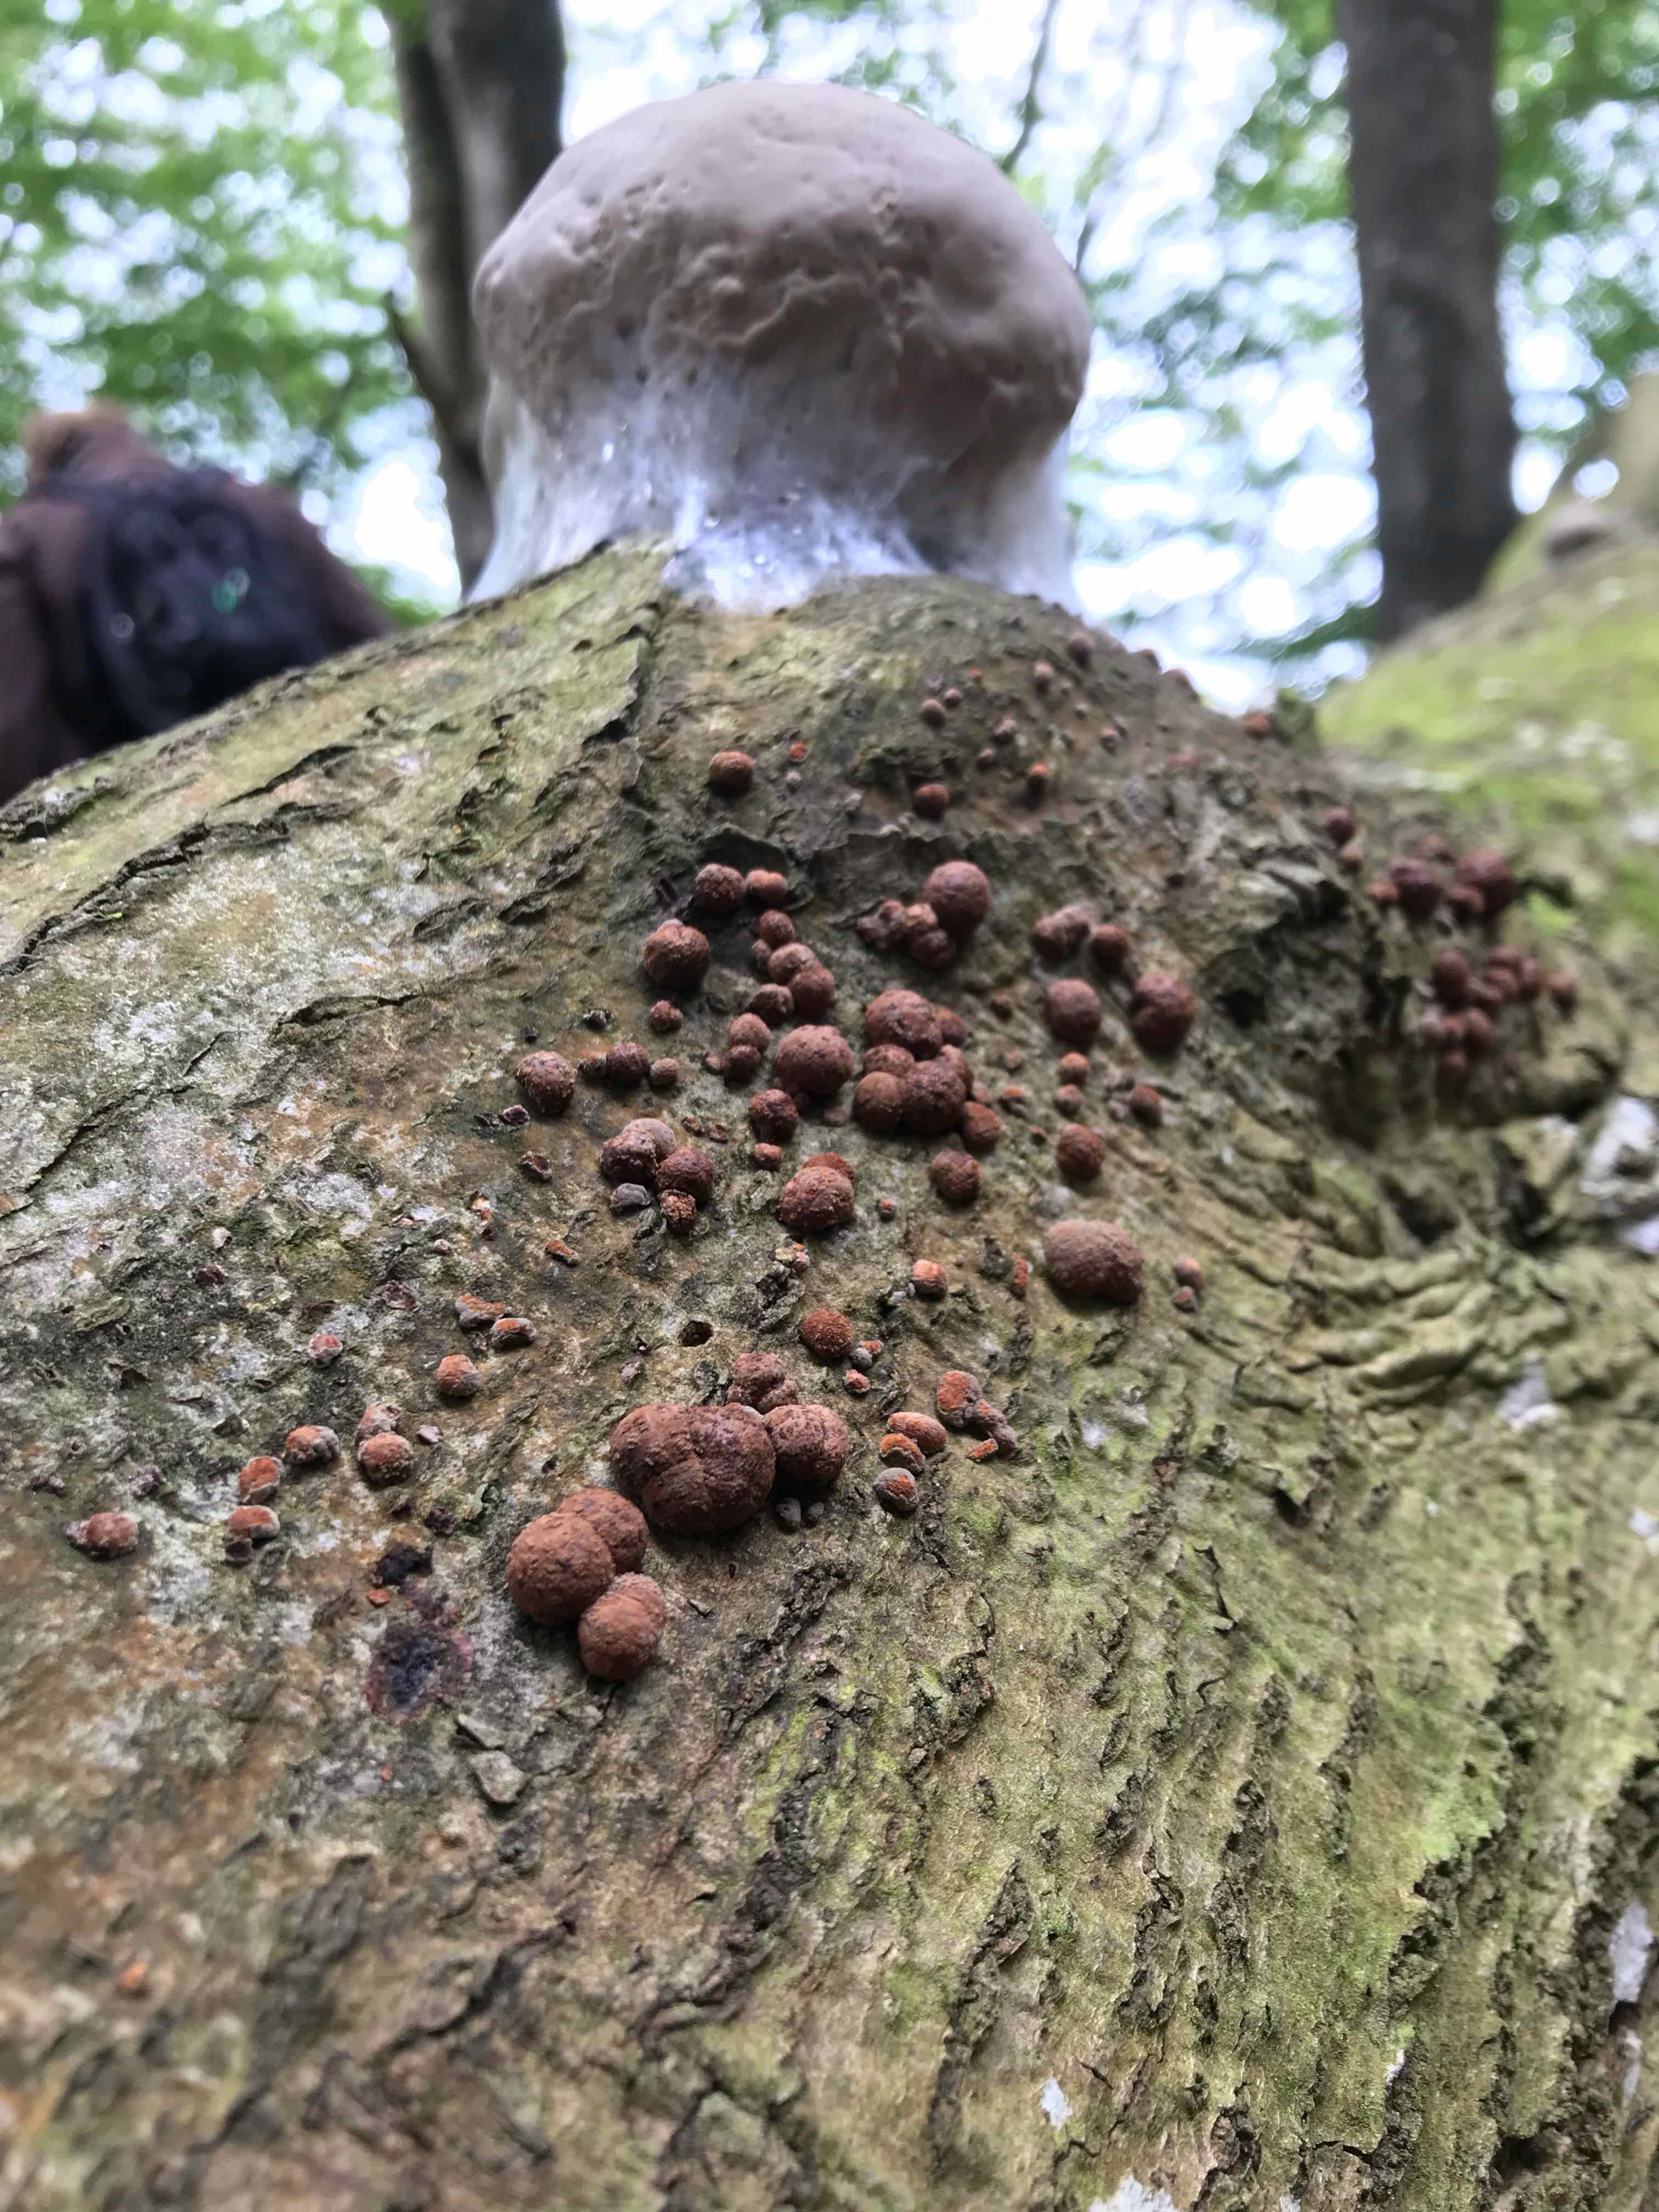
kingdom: Fungi
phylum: Ascomycota
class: Sordariomycetes
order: Xylariales
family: Hypoxylaceae
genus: Hypoxylon
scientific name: Hypoxylon fragiforme
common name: kuljordbær
